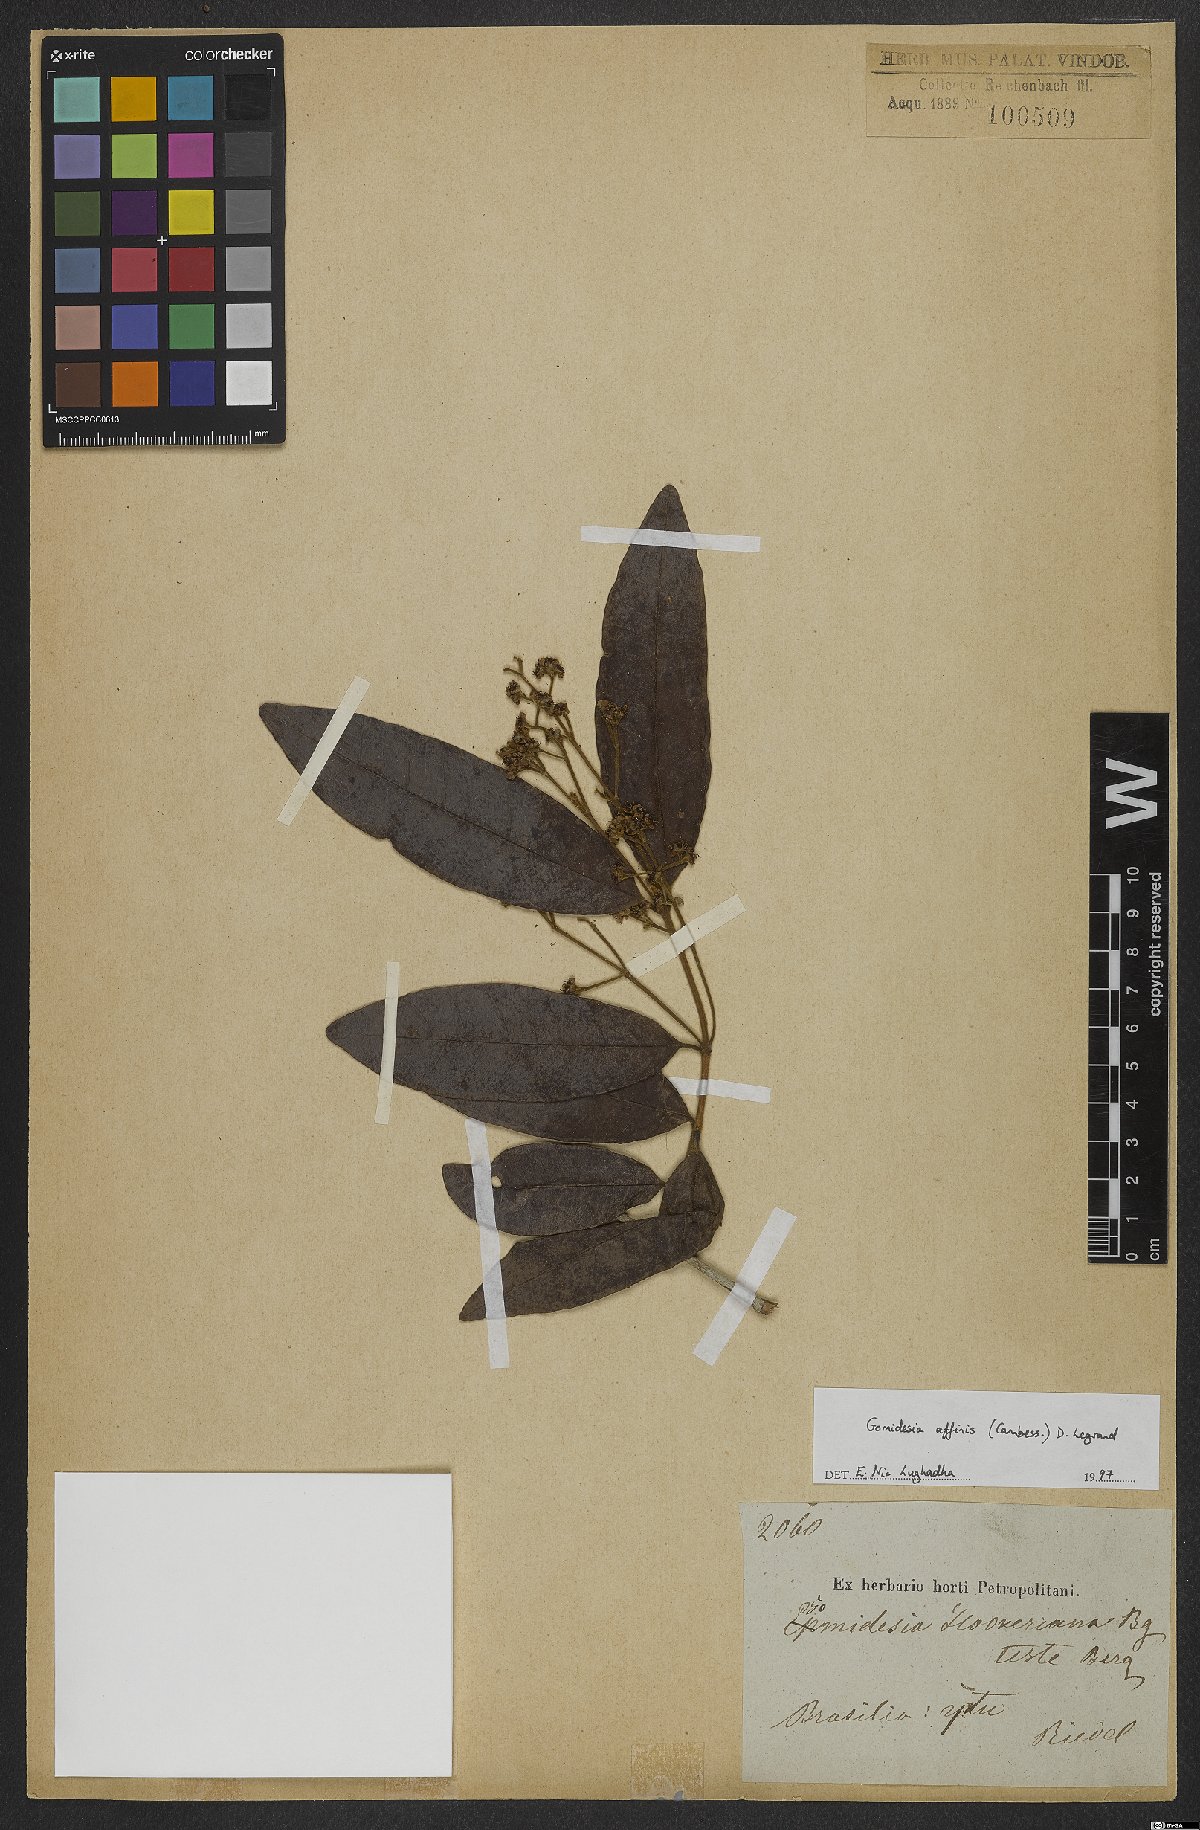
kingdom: Plantae
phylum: Tracheophyta
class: Magnoliopsida
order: Myrtales
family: Myrtaceae
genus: Myrcia
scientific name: Myrcia hebepetala
